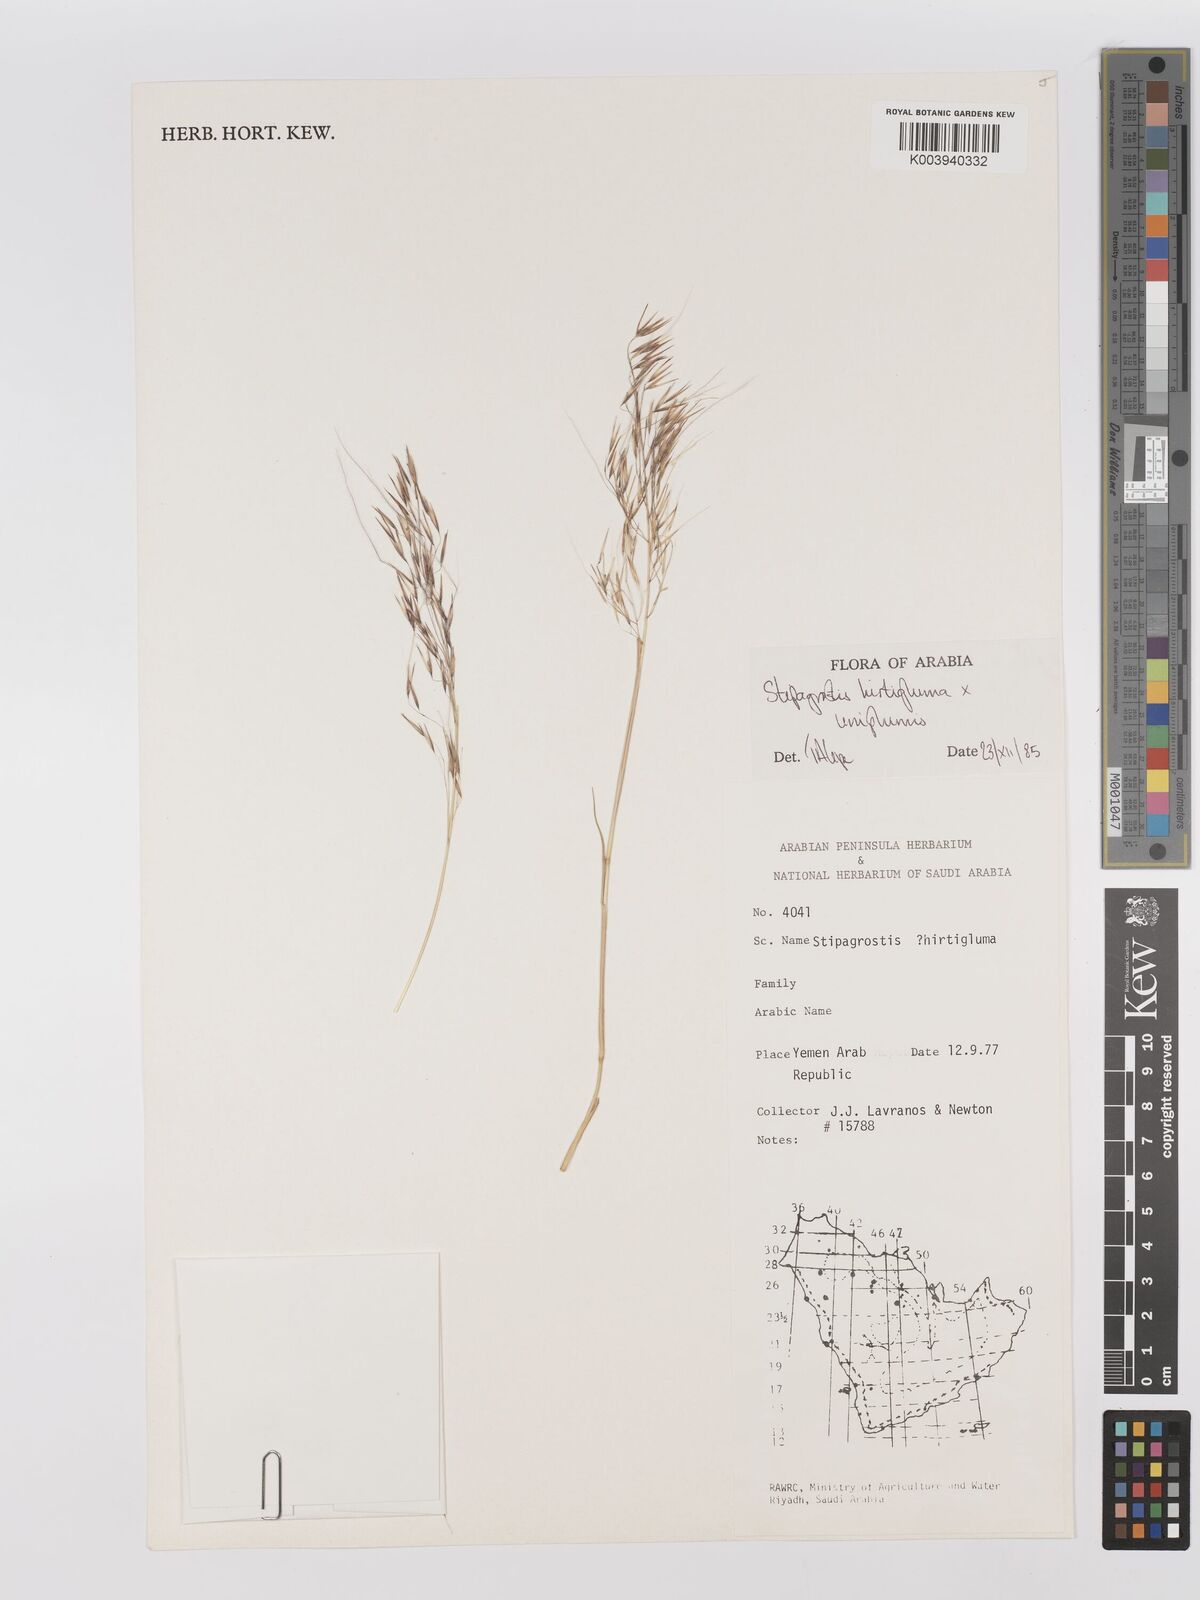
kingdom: Plantae
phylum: Tracheophyta
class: Liliopsida
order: Poales
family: Poaceae
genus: Stipagrostis
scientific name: Stipagrostis hirtigluma
